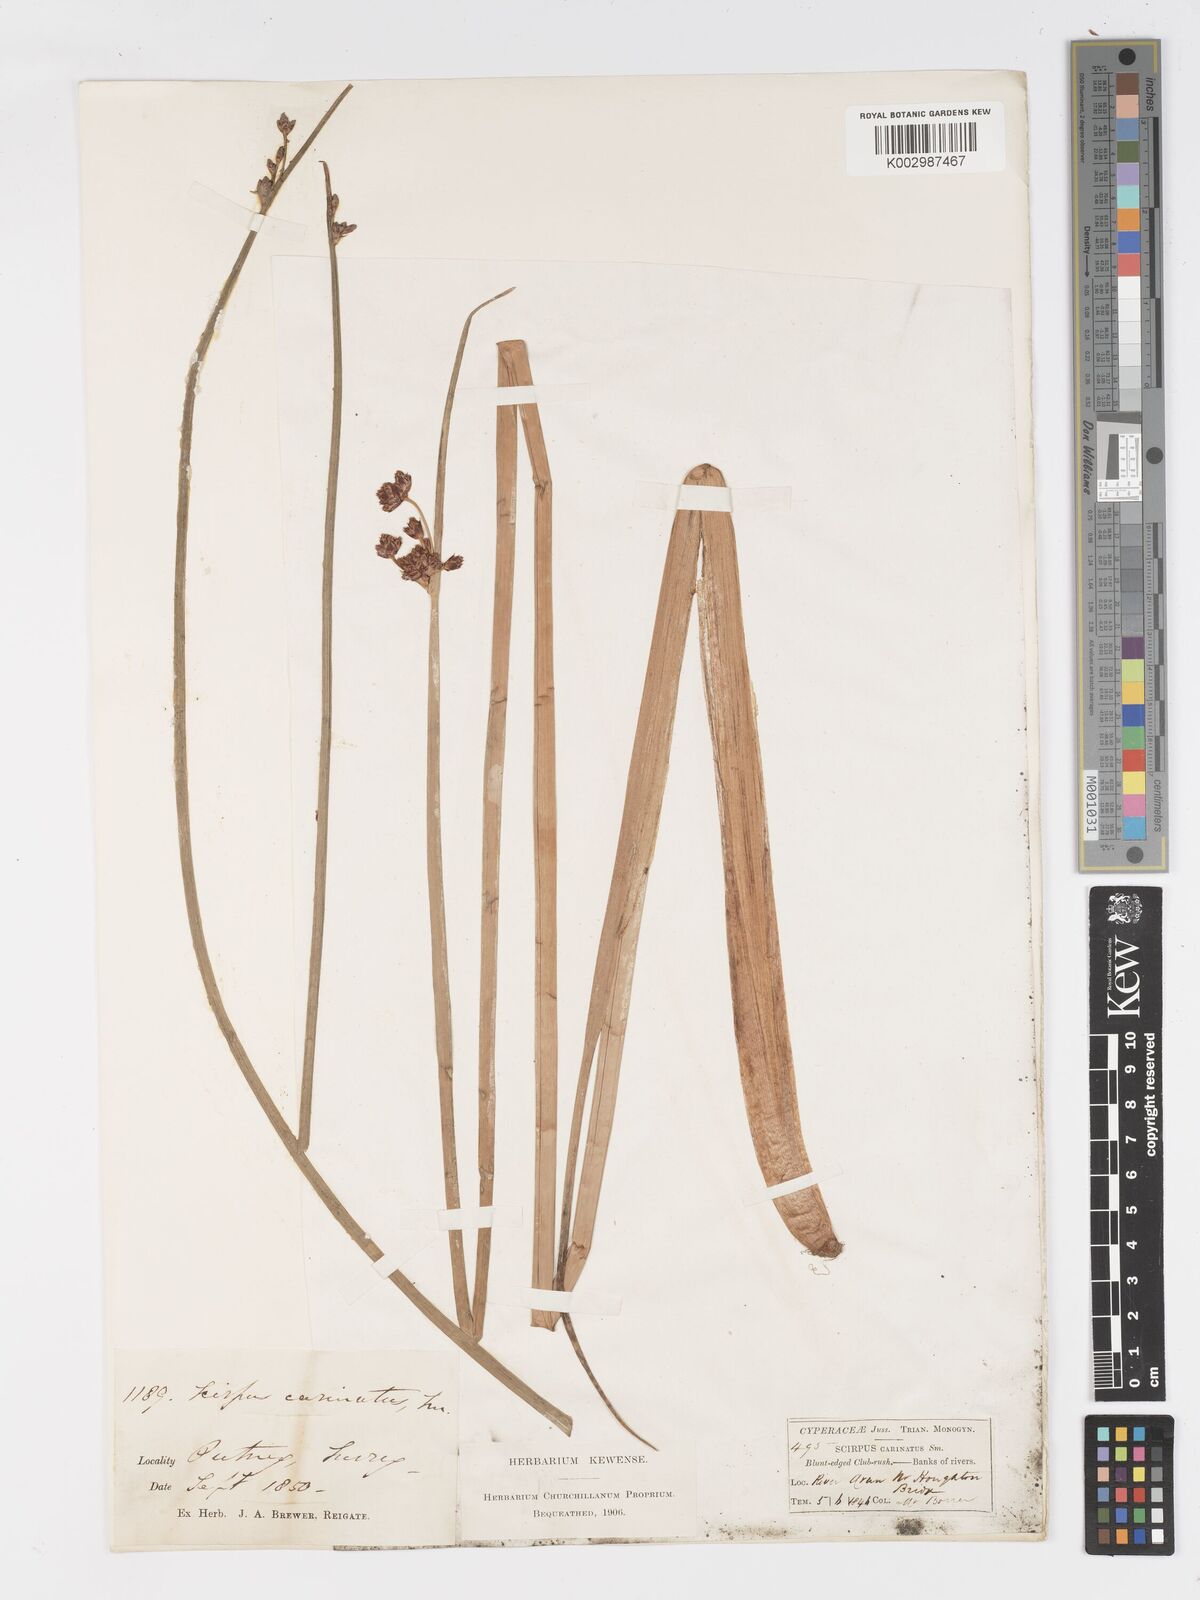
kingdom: Plantae
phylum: Tracheophyta
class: Liliopsida
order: Poales
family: Cyperaceae
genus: Schoenoplectus
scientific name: Schoenoplectus carinatus
